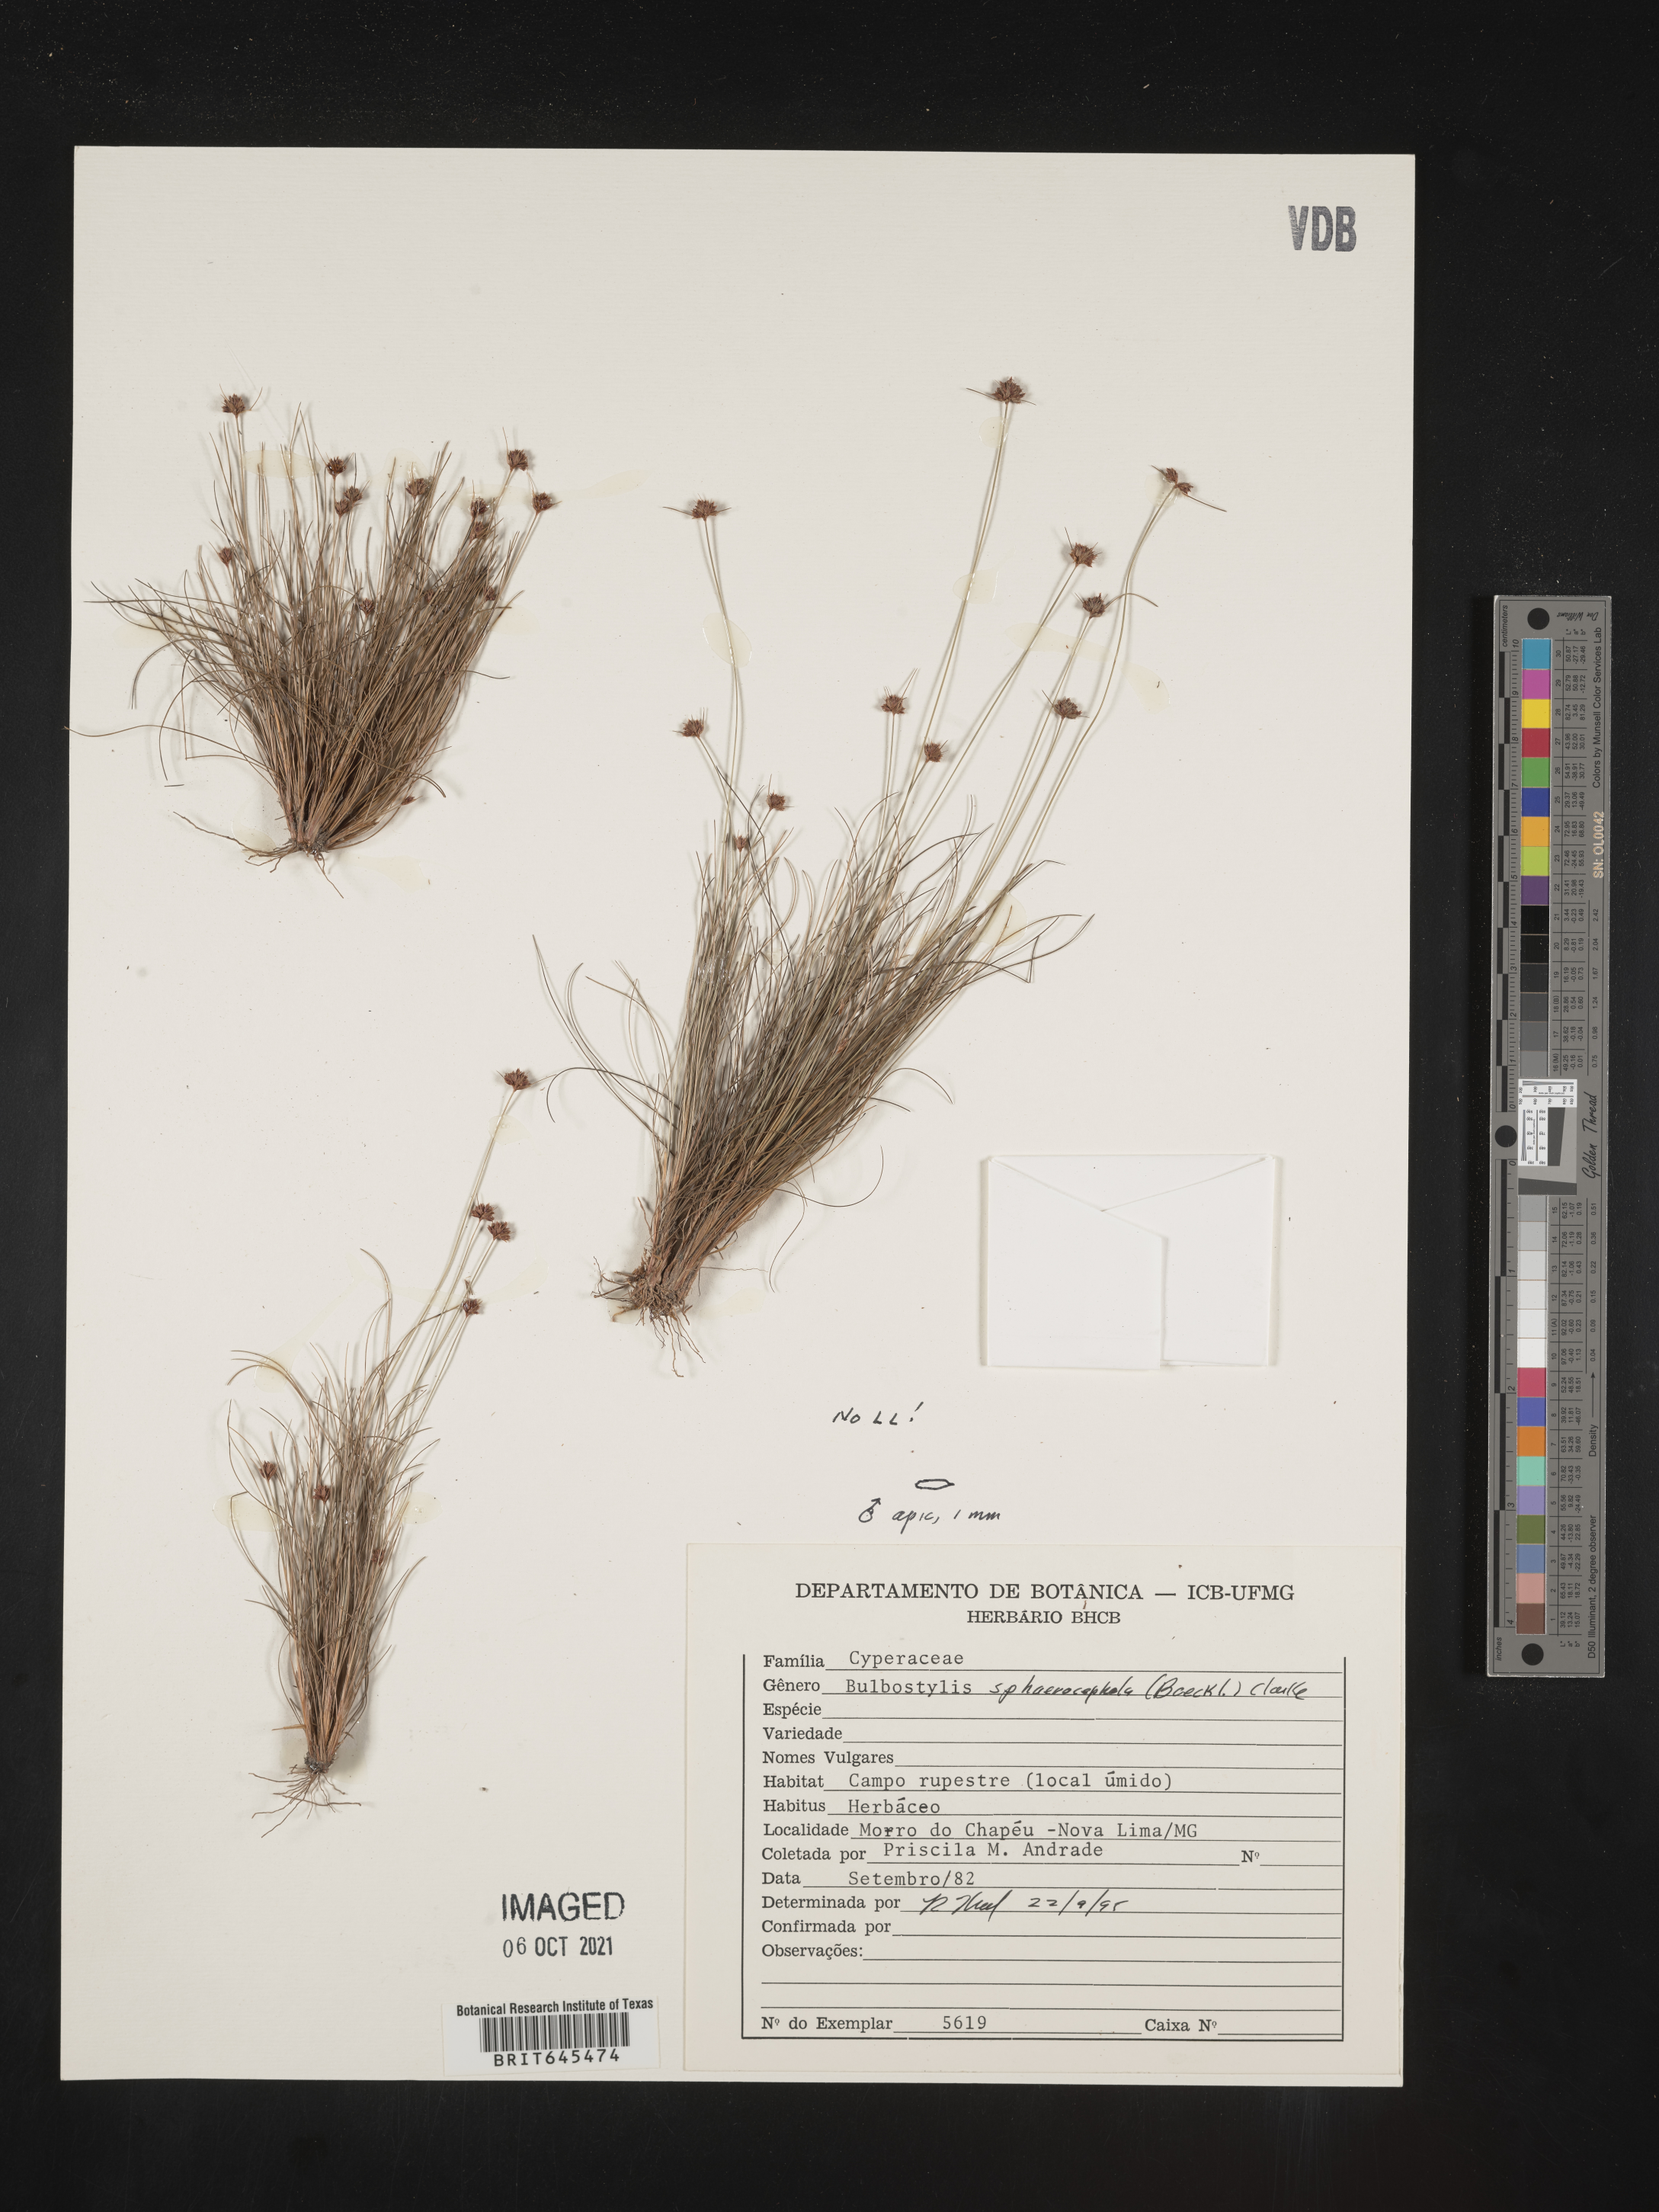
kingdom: Plantae
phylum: Tracheophyta
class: Liliopsida
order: Poales
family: Cyperaceae
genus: Bulbostylis
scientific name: Bulbostylis sphaerocephala
